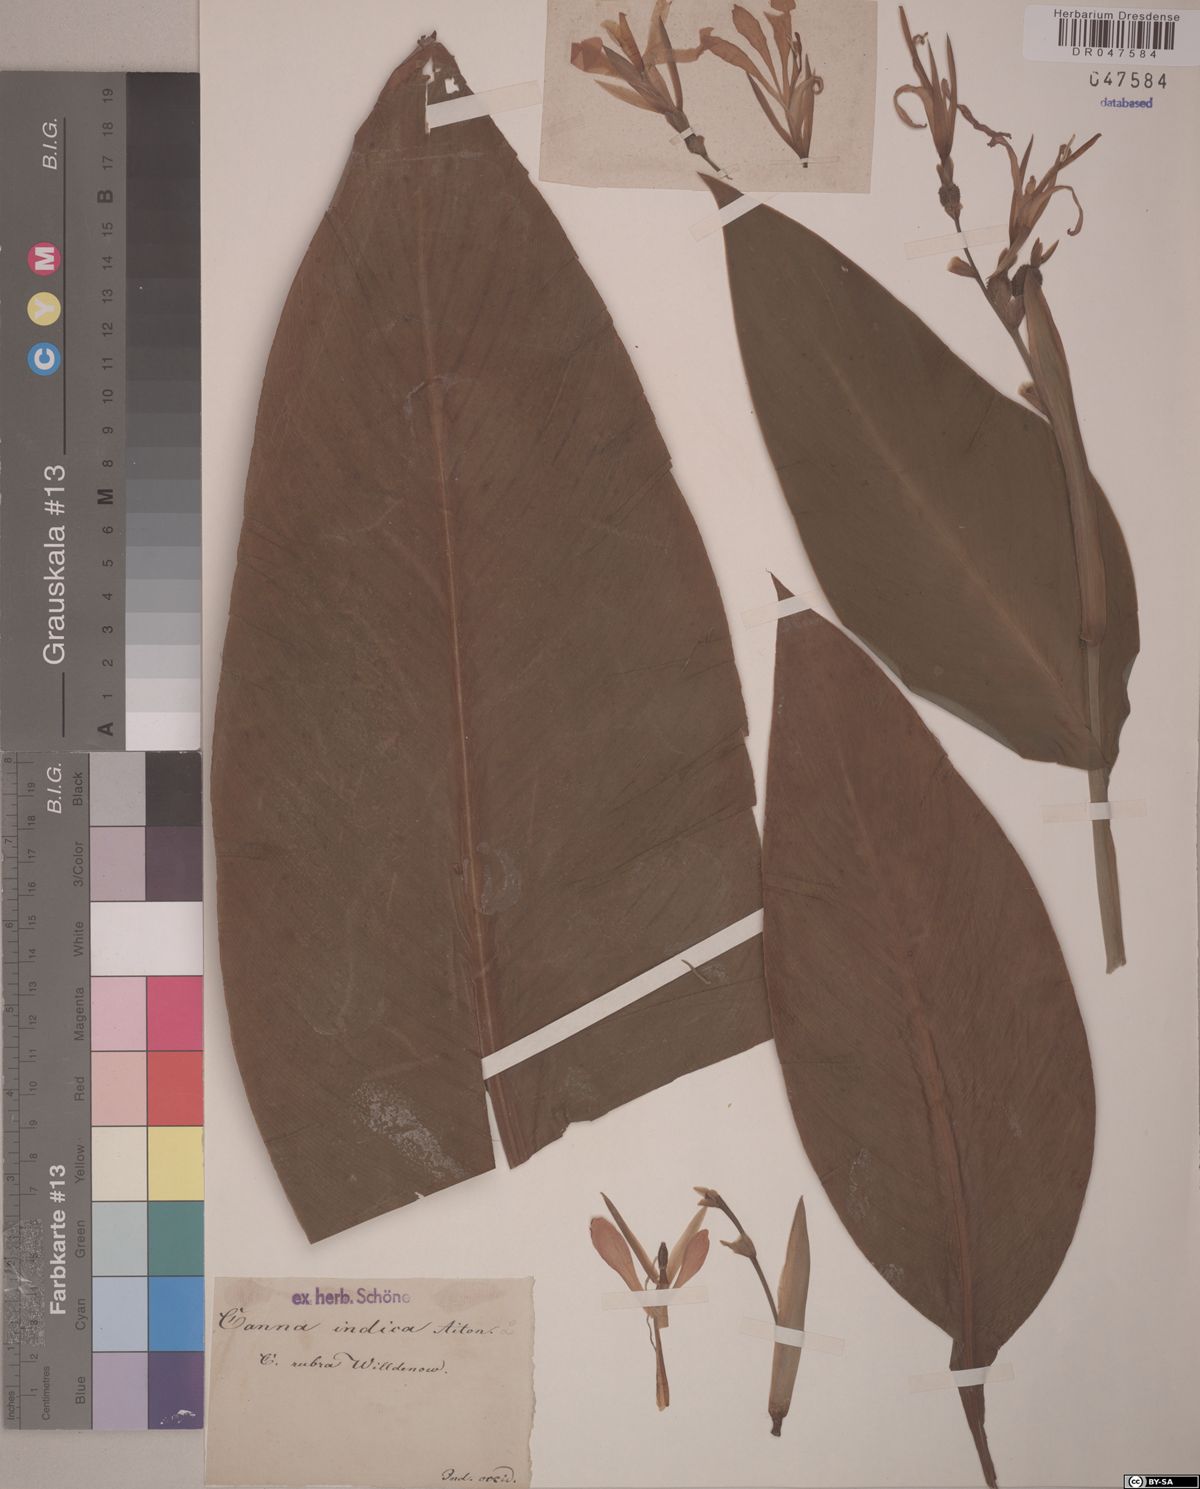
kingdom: Plantae
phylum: Tracheophyta
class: Liliopsida
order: Zingiberales
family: Cannaceae
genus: Canna
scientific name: Canna indica
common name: Indian shot
